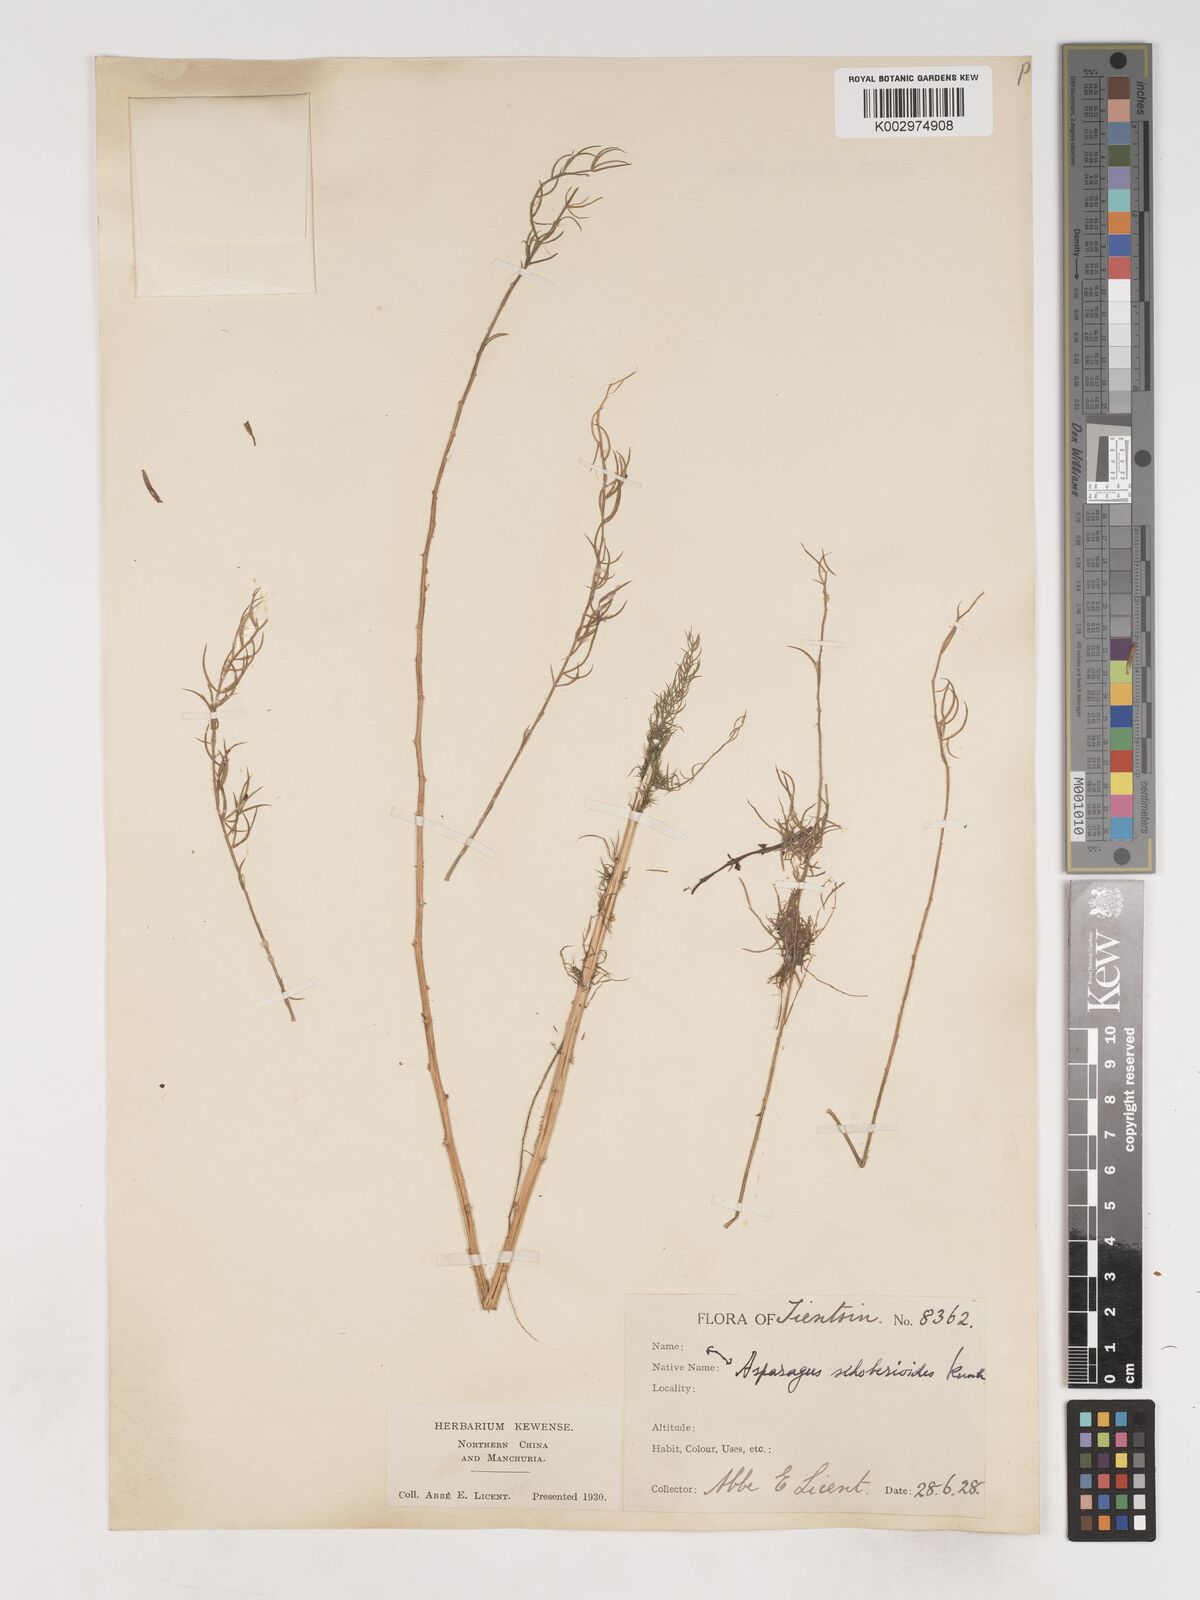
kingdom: Plantae
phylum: Tracheophyta
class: Liliopsida
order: Asparagales
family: Asparagaceae
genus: Asparagus
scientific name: Asparagus schoberioides
